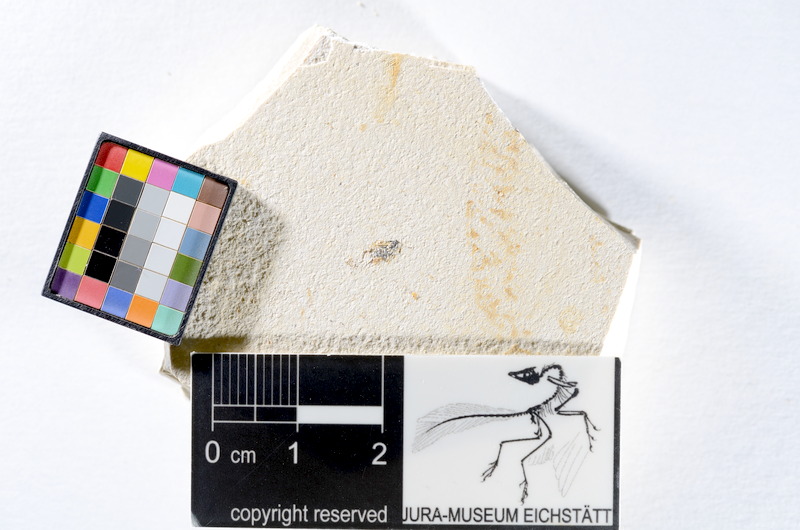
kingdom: Animalia
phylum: Chordata
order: Salmoniformes
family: Orthogonikleithridae
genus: Orthogonikleithrus
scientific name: Orthogonikleithrus hoelli
